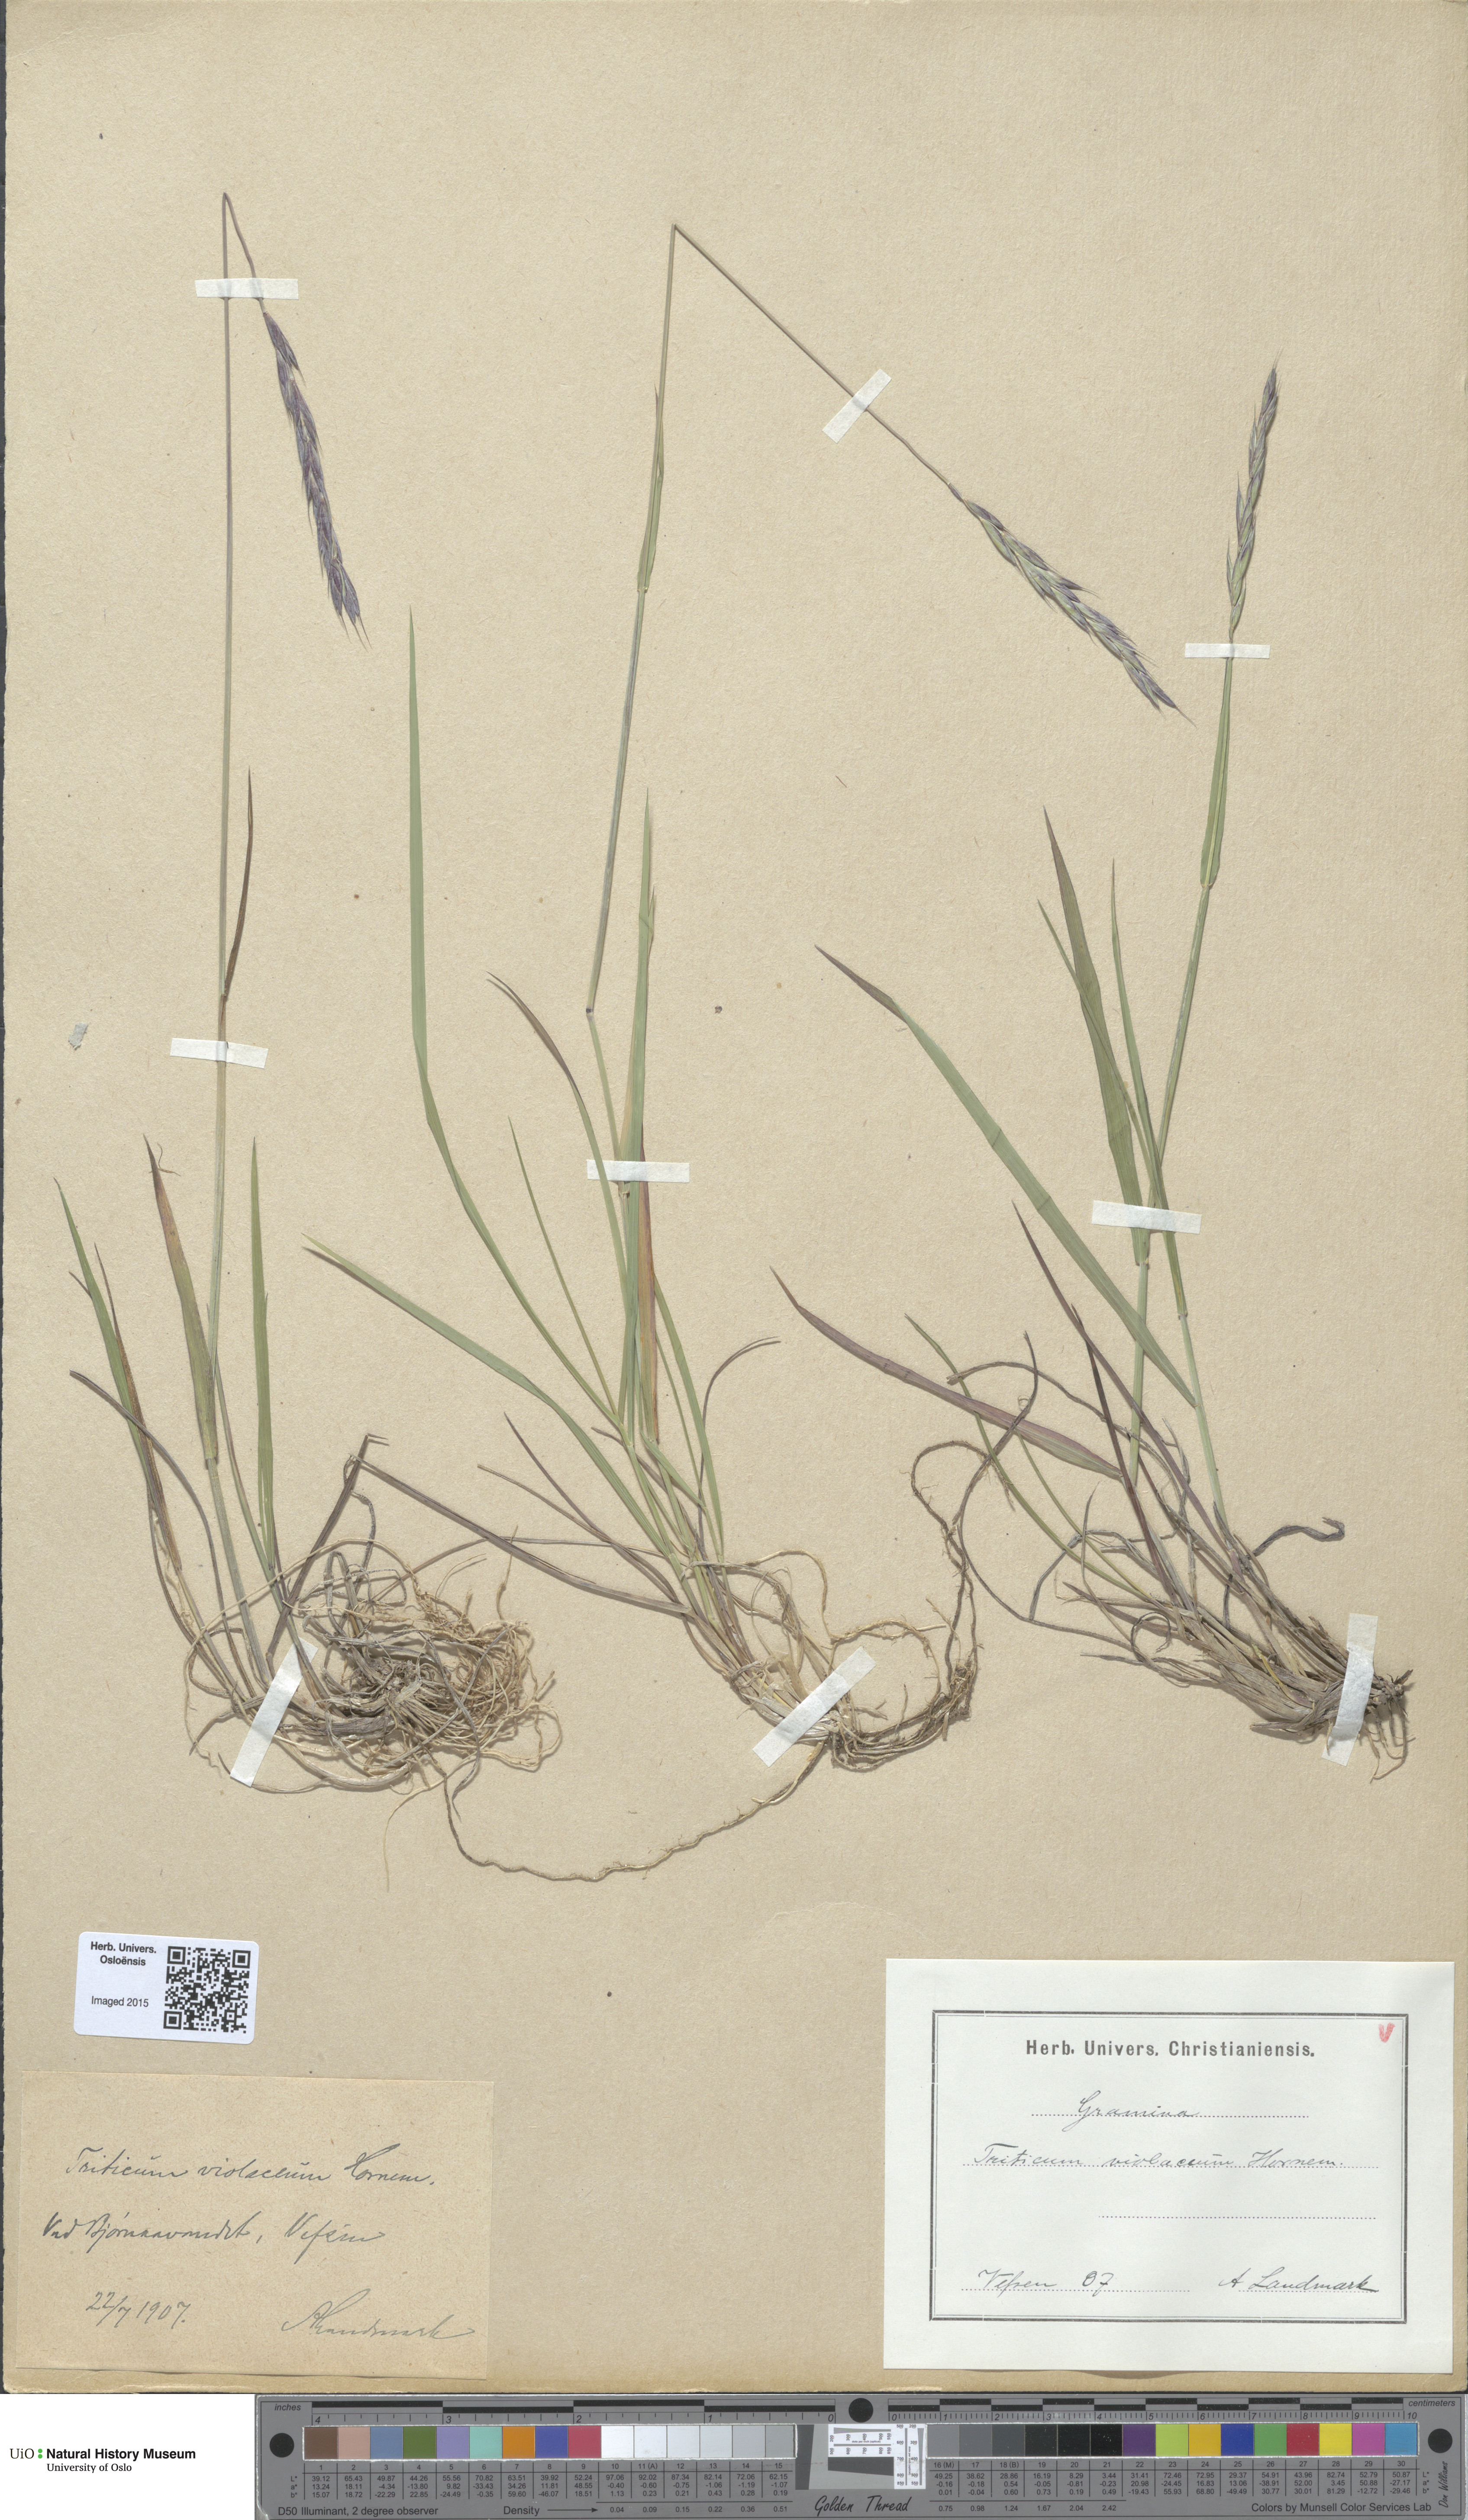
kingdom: Plantae
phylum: Tracheophyta
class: Liliopsida
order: Poales
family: Poaceae
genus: Elymus
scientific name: Elymus macrourus
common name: Northern wheatgrass
